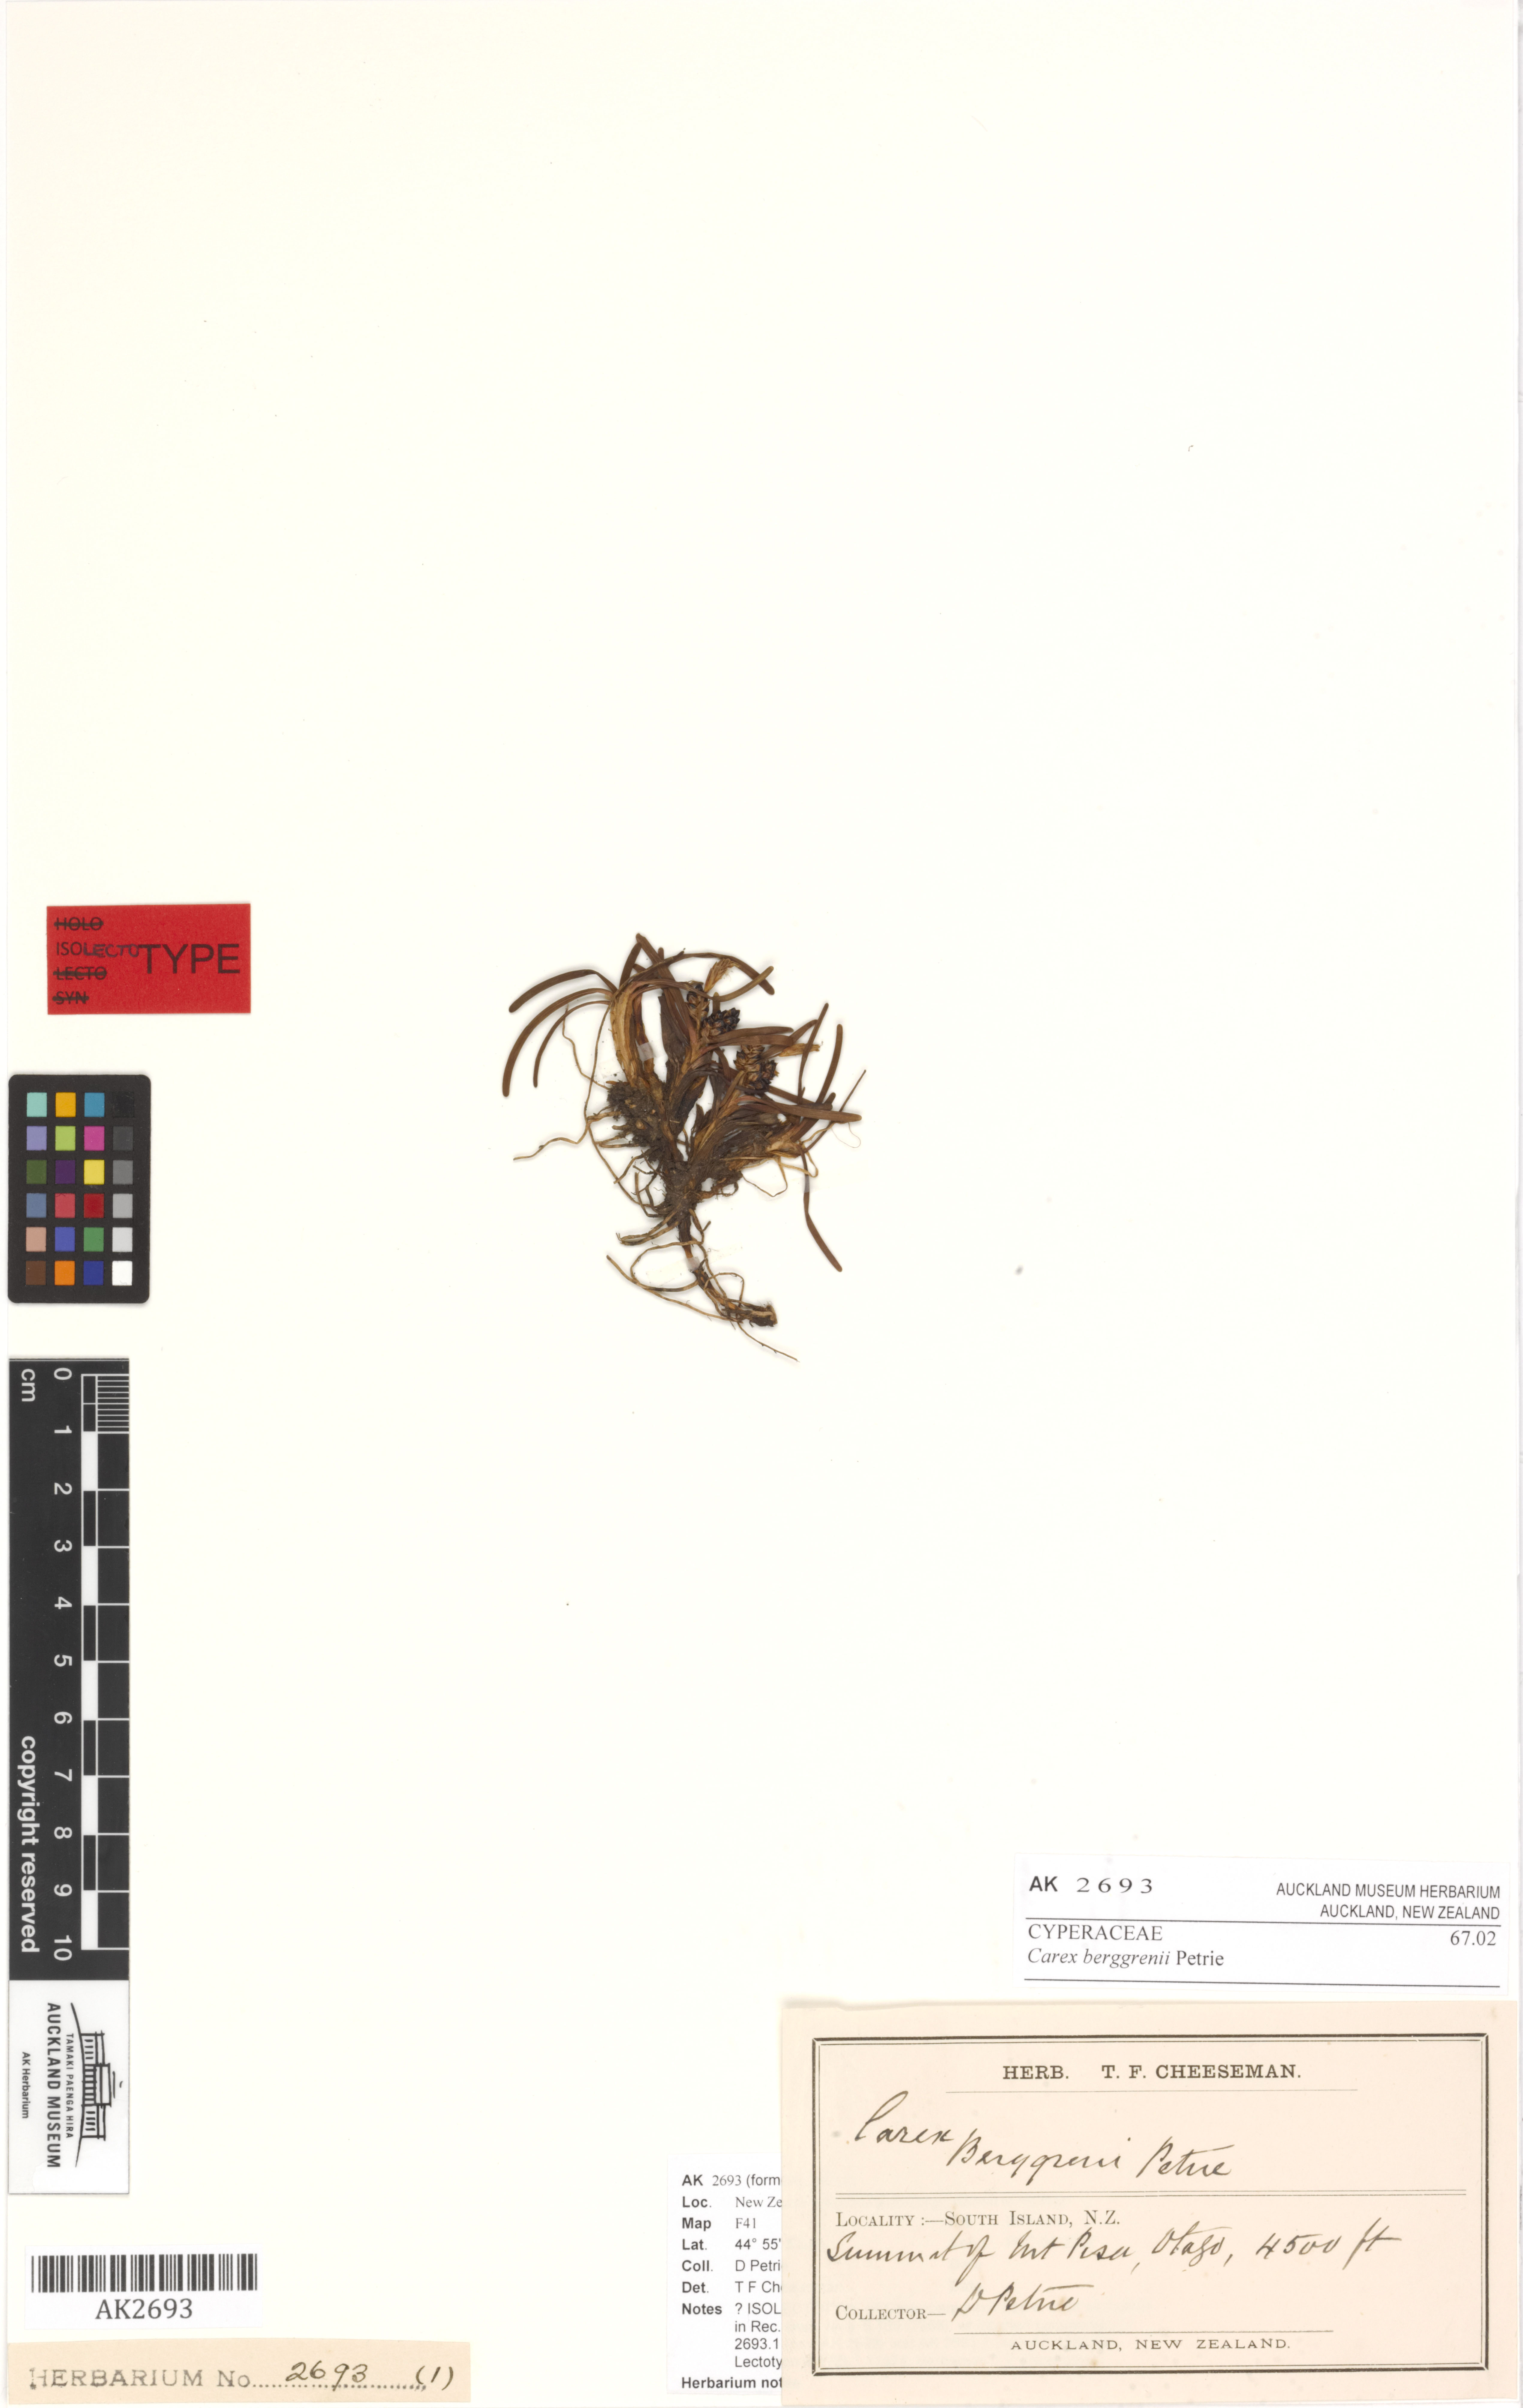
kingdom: Plantae
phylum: Tracheophyta
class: Liliopsida
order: Poales
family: Cyperaceae
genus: Carex
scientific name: Carex talbotii
